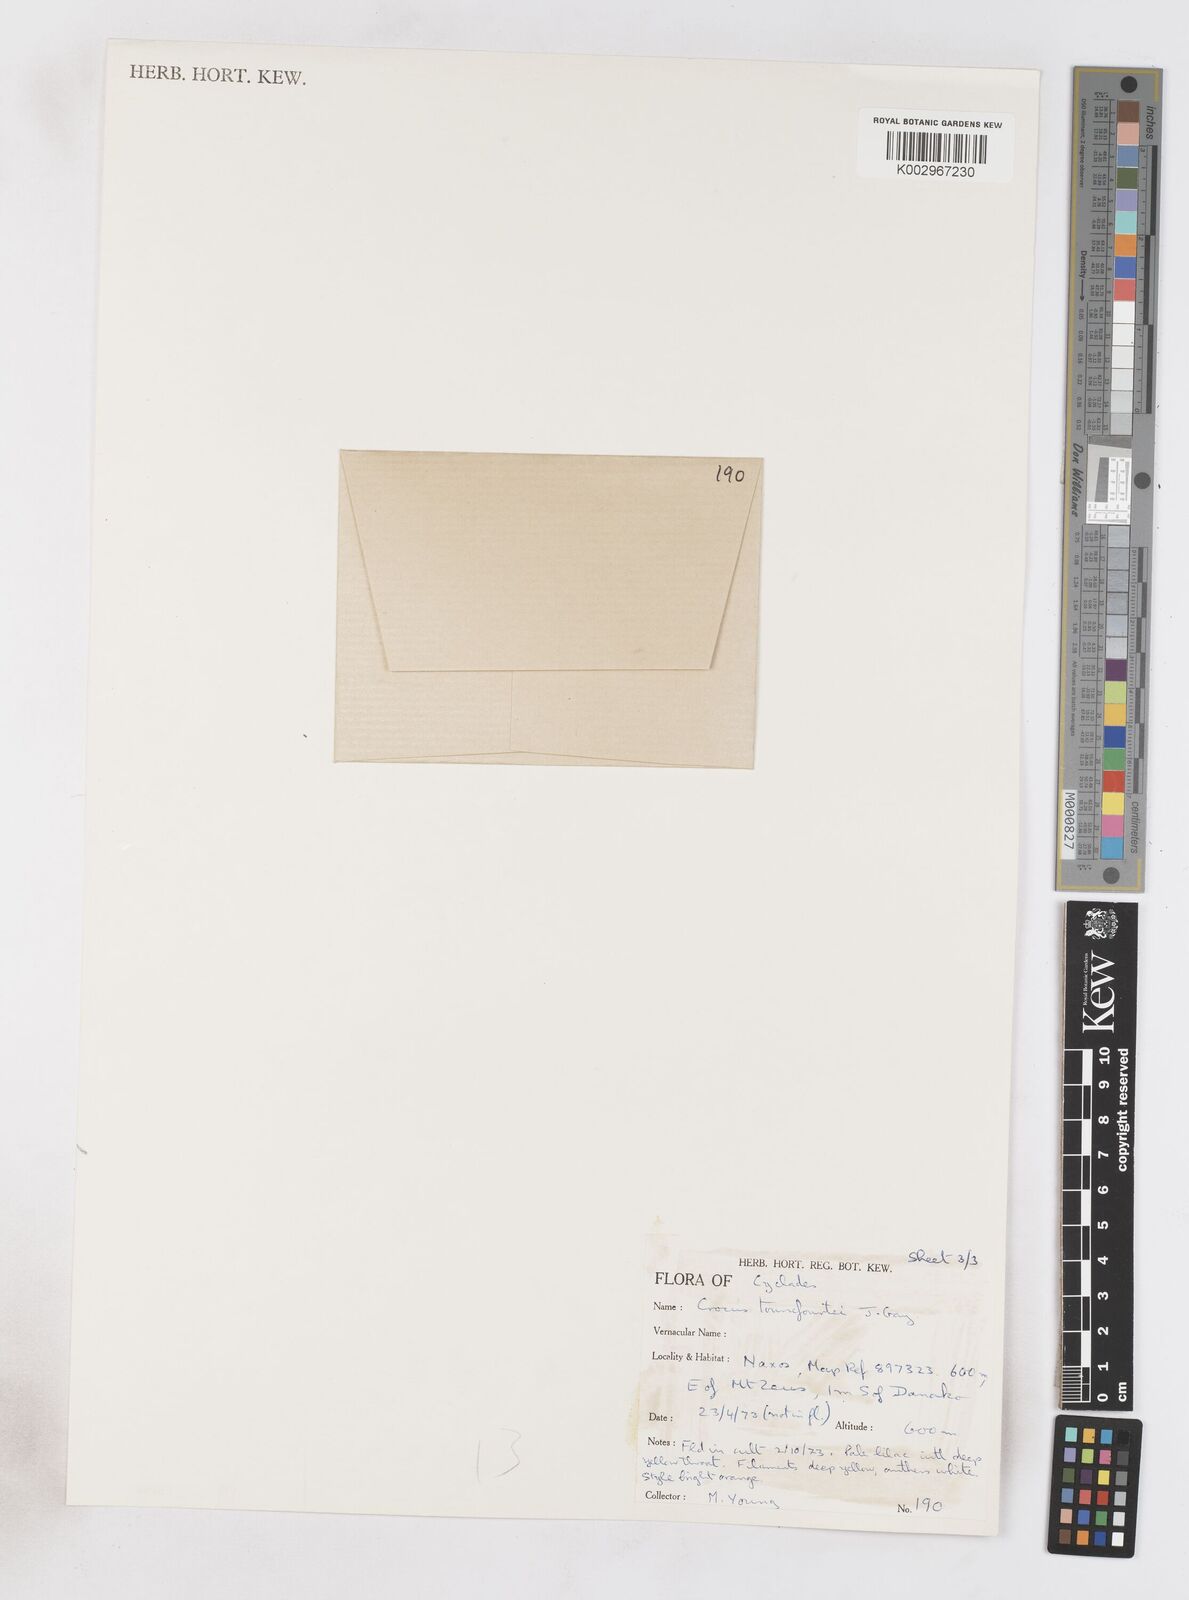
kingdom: Plantae
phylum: Tracheophyta
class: Liliopsida
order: Asparagales
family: Iridaceae
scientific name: Iridaceae
